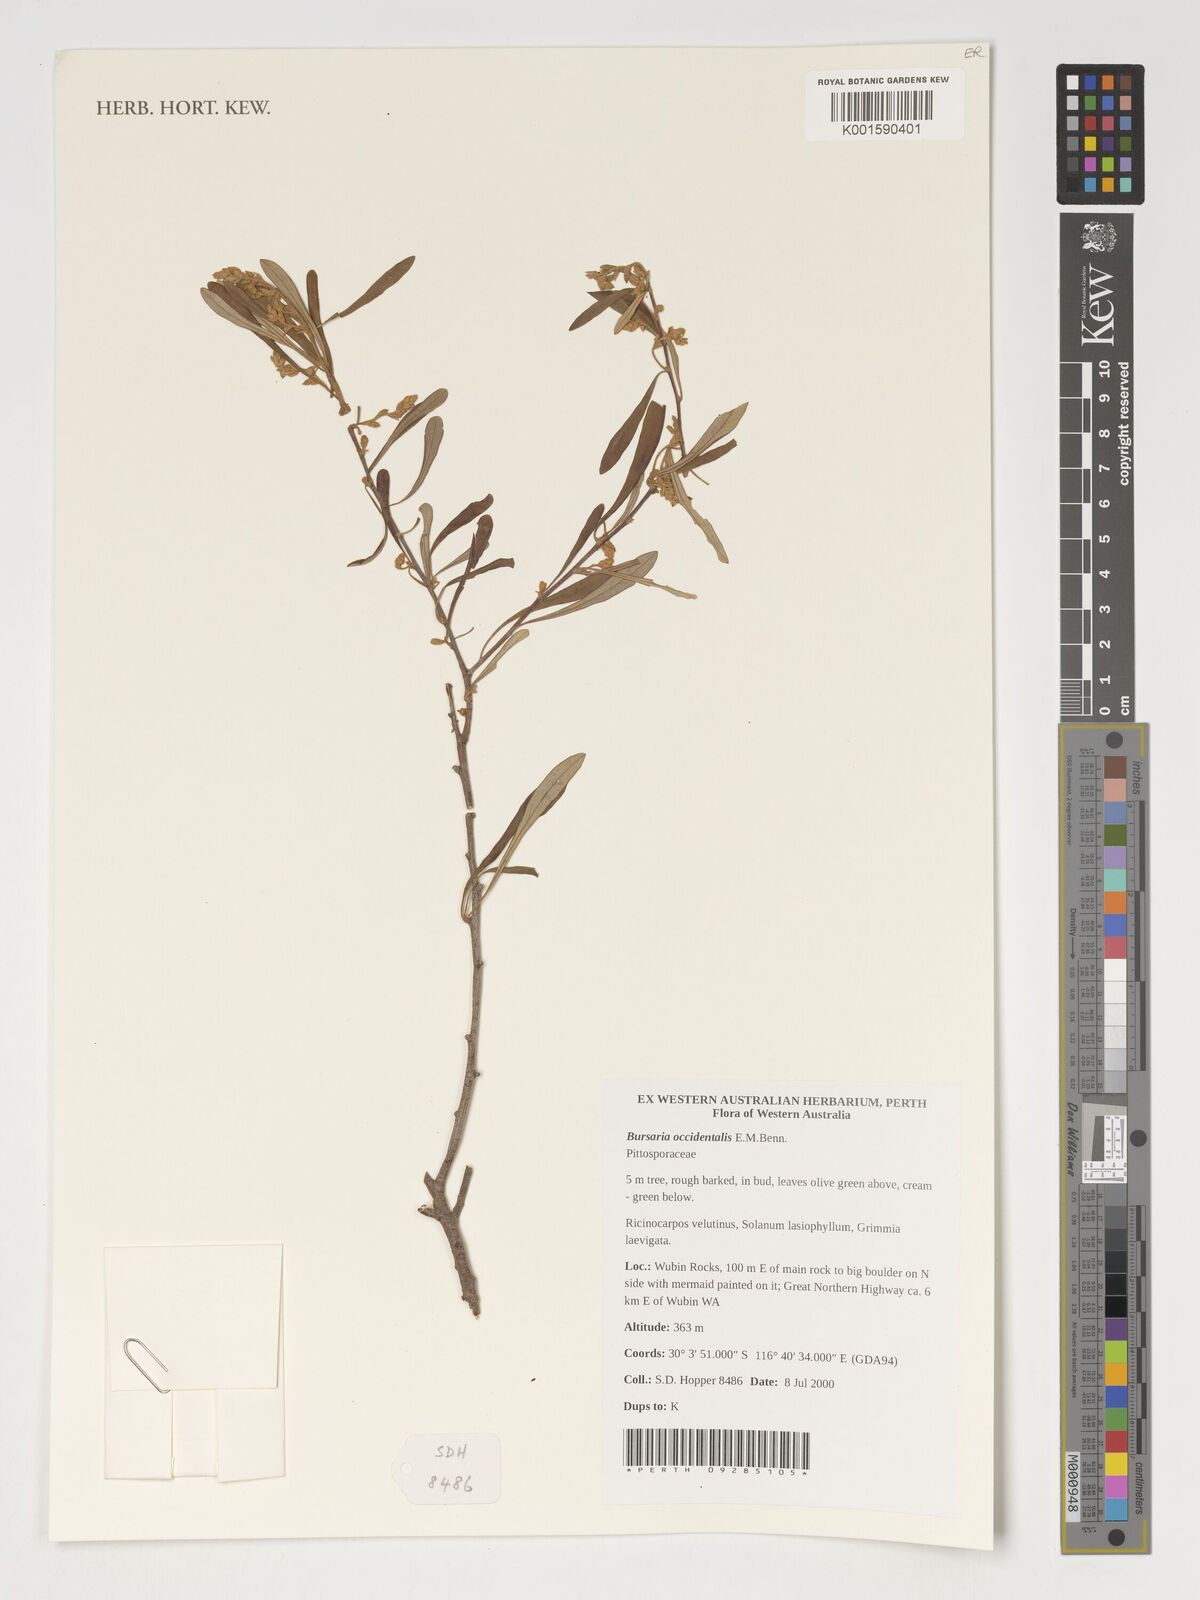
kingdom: Plantae
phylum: Tracheophyta
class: Magnoliopsida
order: Apiales
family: Pittosporaceae
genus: Bursaria
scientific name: Bursaria occidentalis
